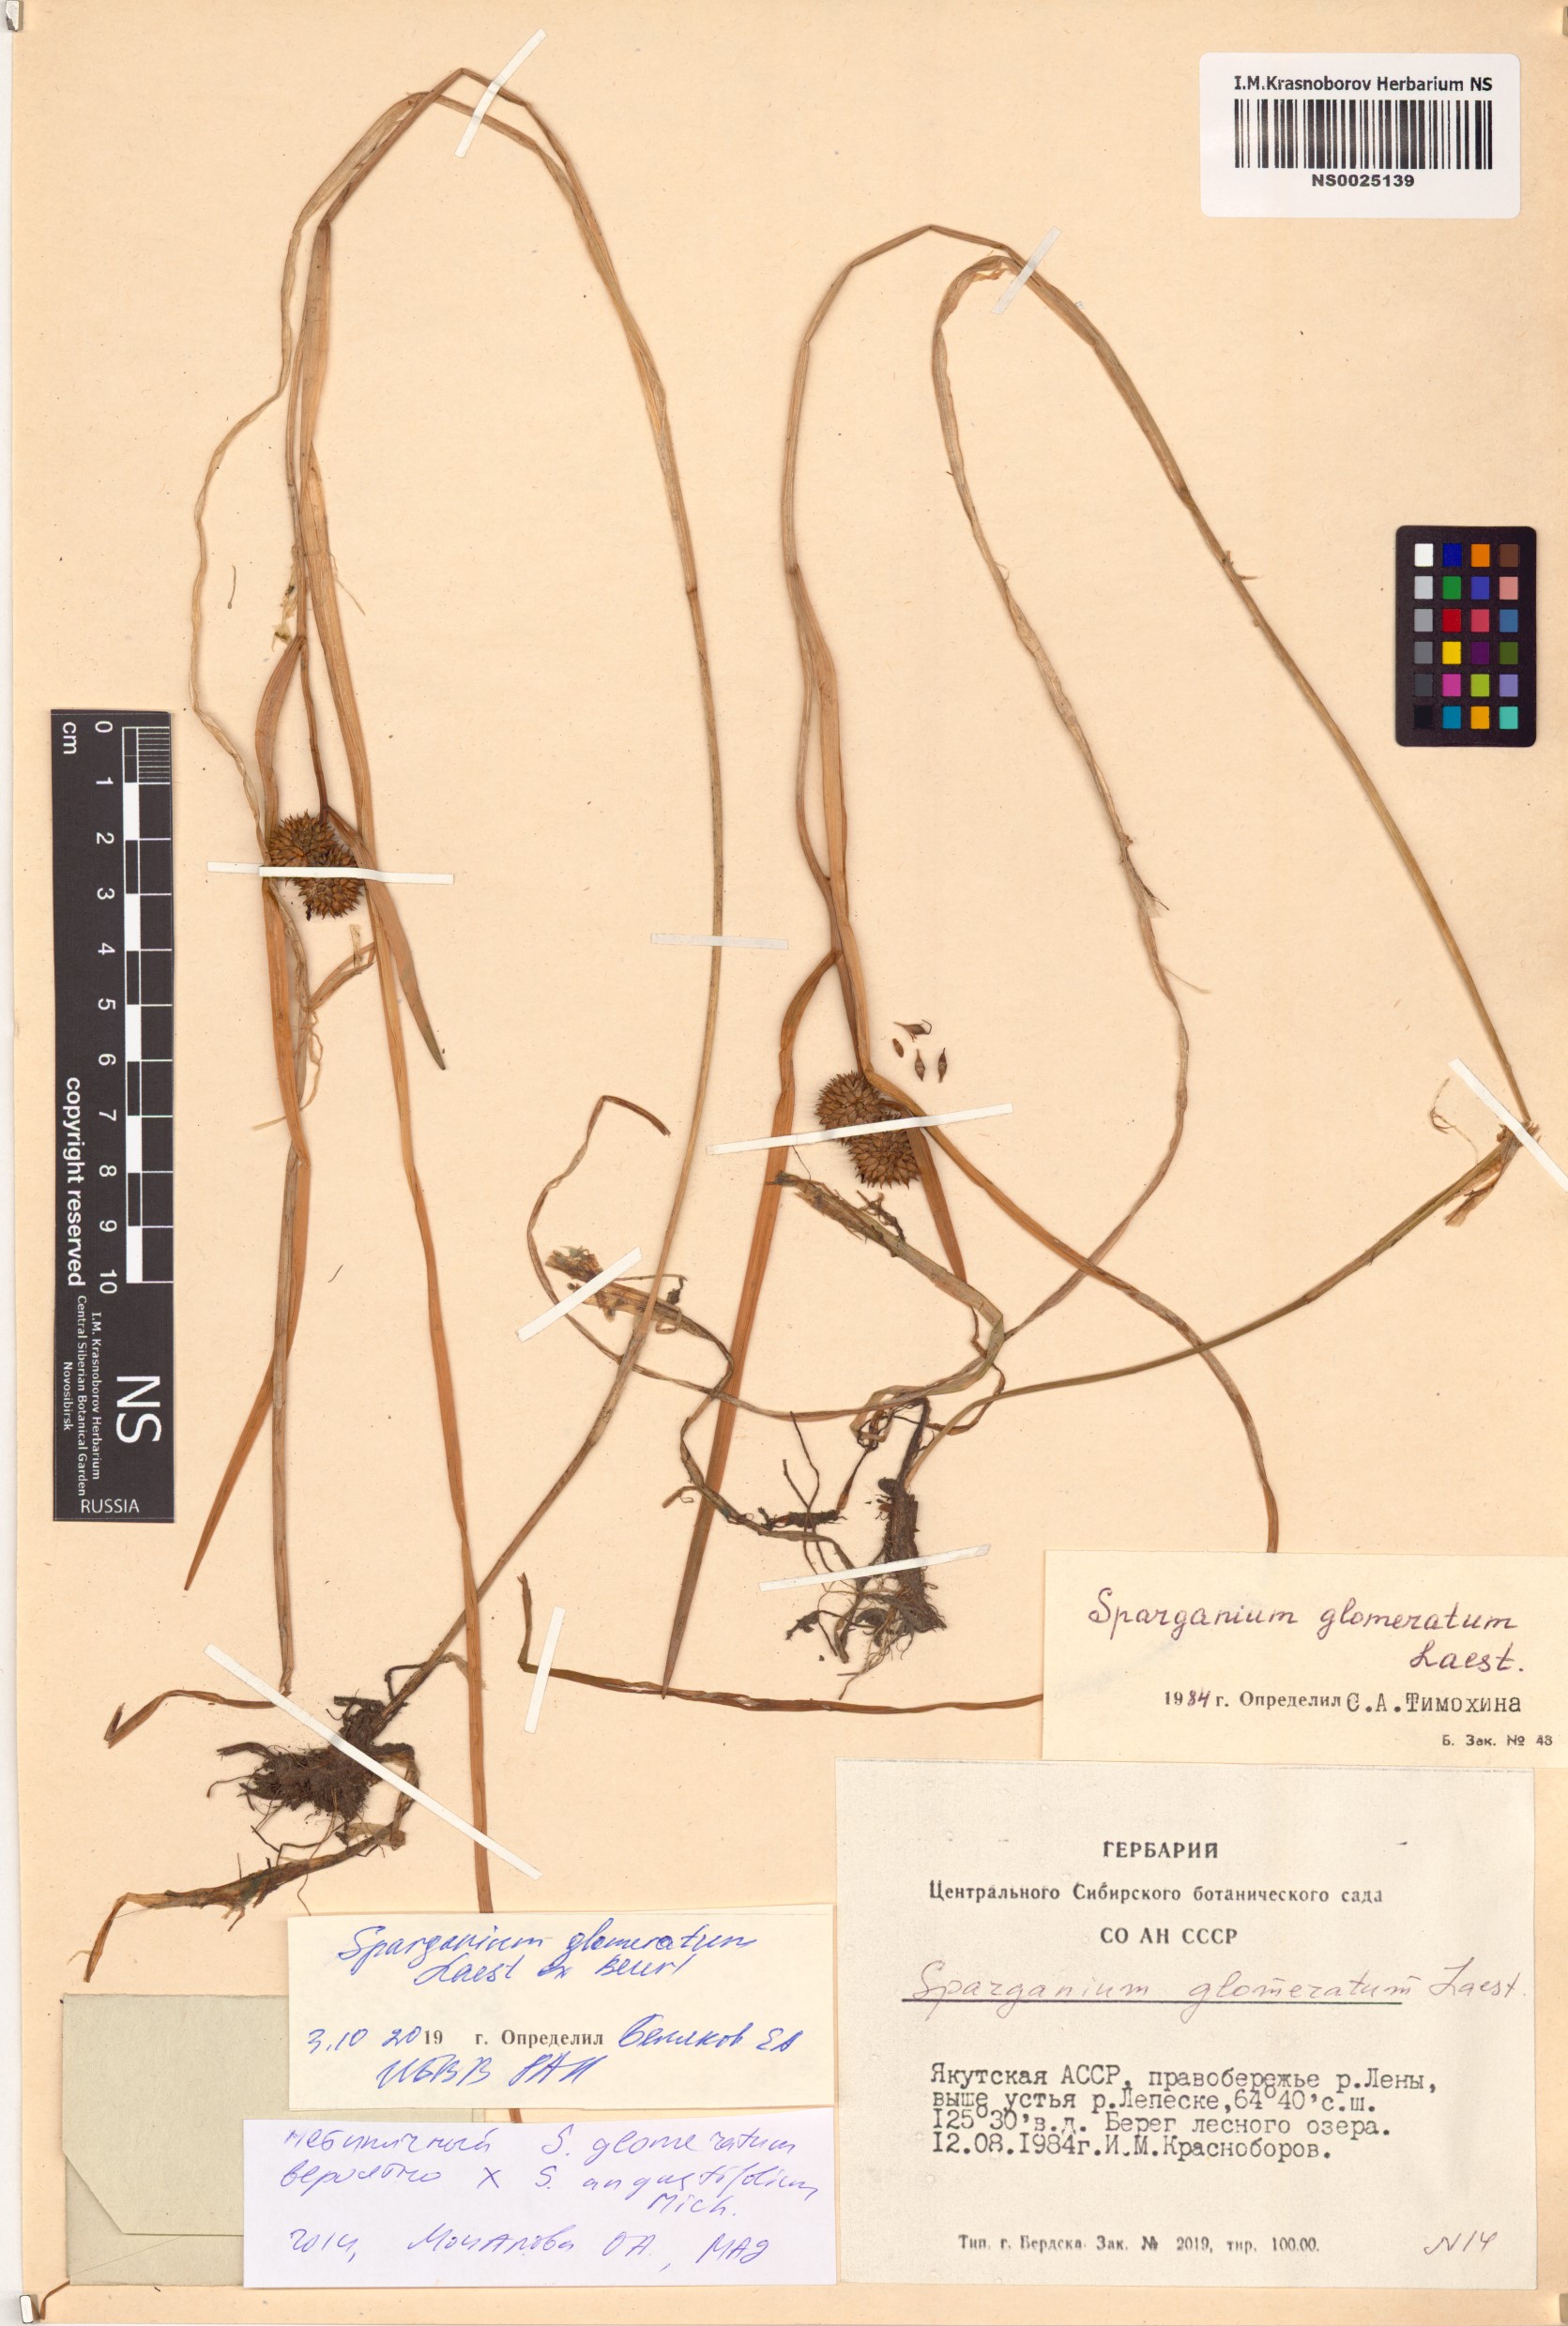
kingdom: Plantae
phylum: Tracheophyta
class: Liliopsida
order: Poales
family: Typhaceae
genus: Sparganium
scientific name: Sparganium glomeratum
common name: Clustered burreed
